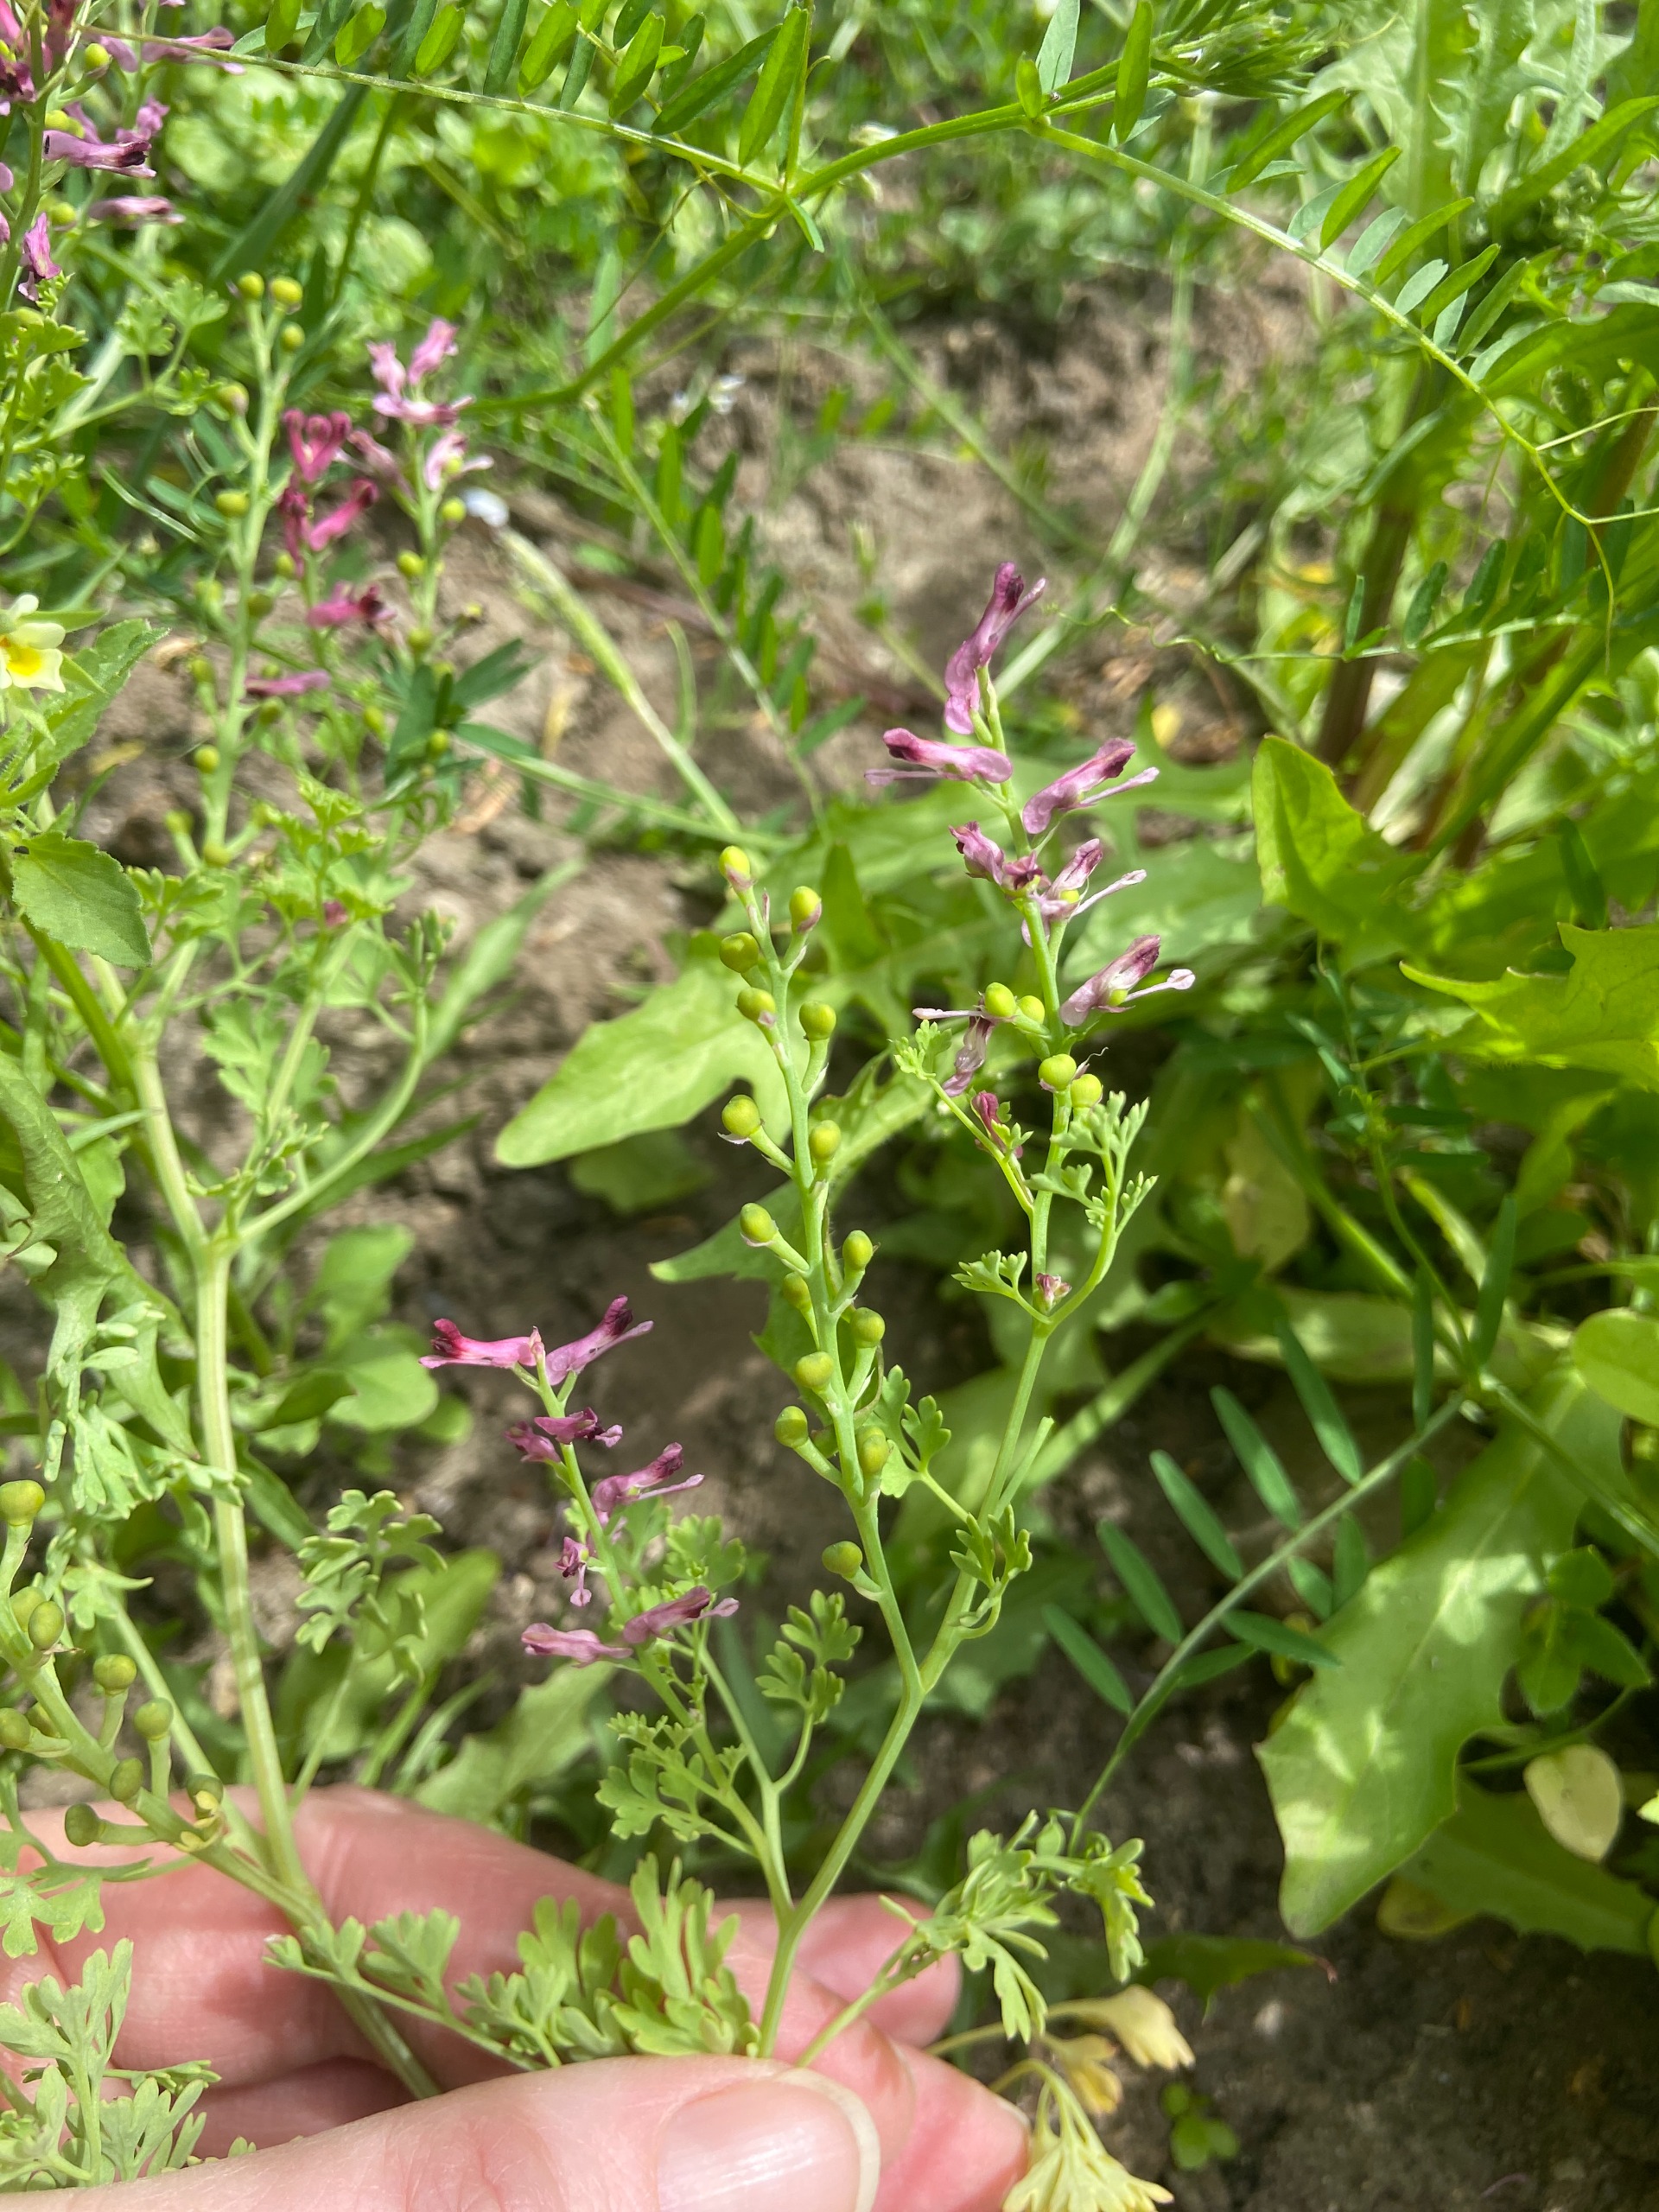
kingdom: Plantae
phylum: Tracheophyta
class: Magnoliopsida
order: Ranunculales
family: Papaveraceae
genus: Fumaria
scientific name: Fumaria officinalis
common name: Læge-jordrøg
